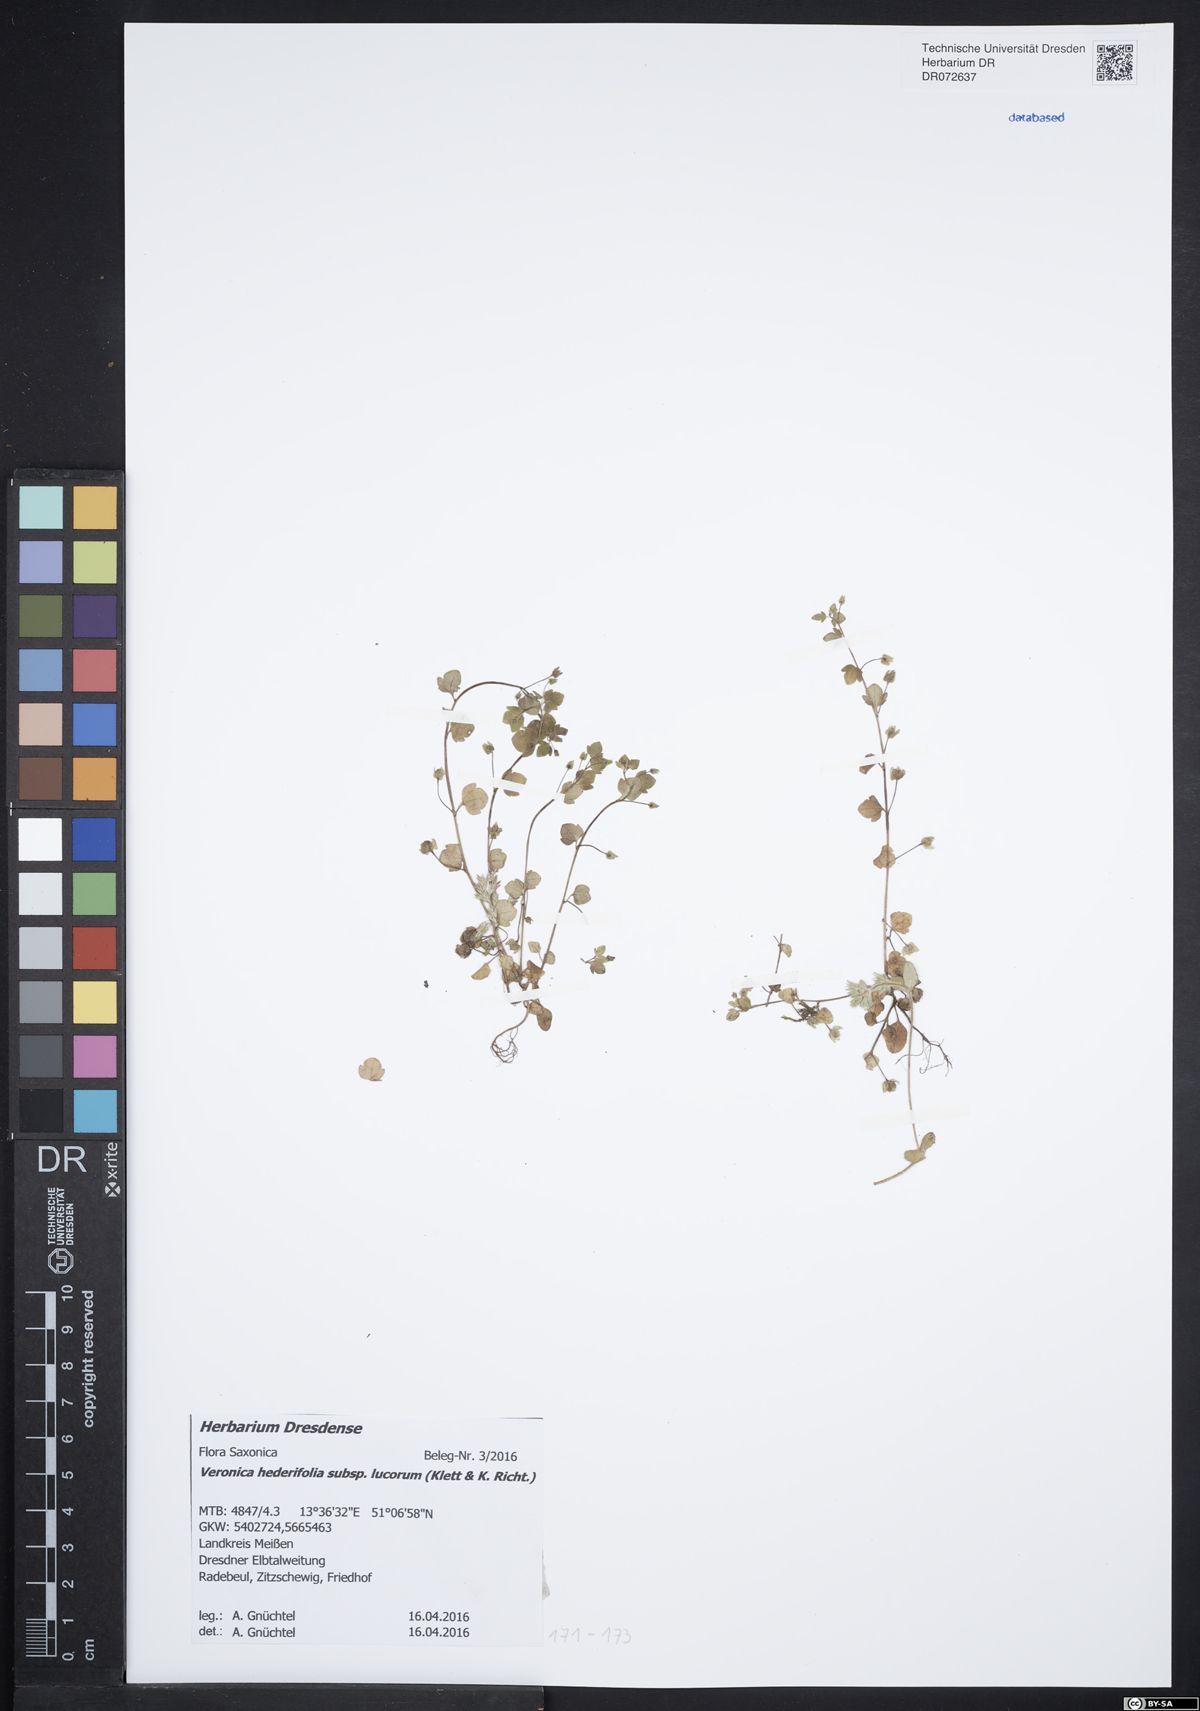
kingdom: Plantae
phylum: Tracheophyta
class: Magnoliopsida
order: Lamiales
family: Plantaginaceae
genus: Veronica
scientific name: Veronica hederifolia
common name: Ivy-leaved speedwell
